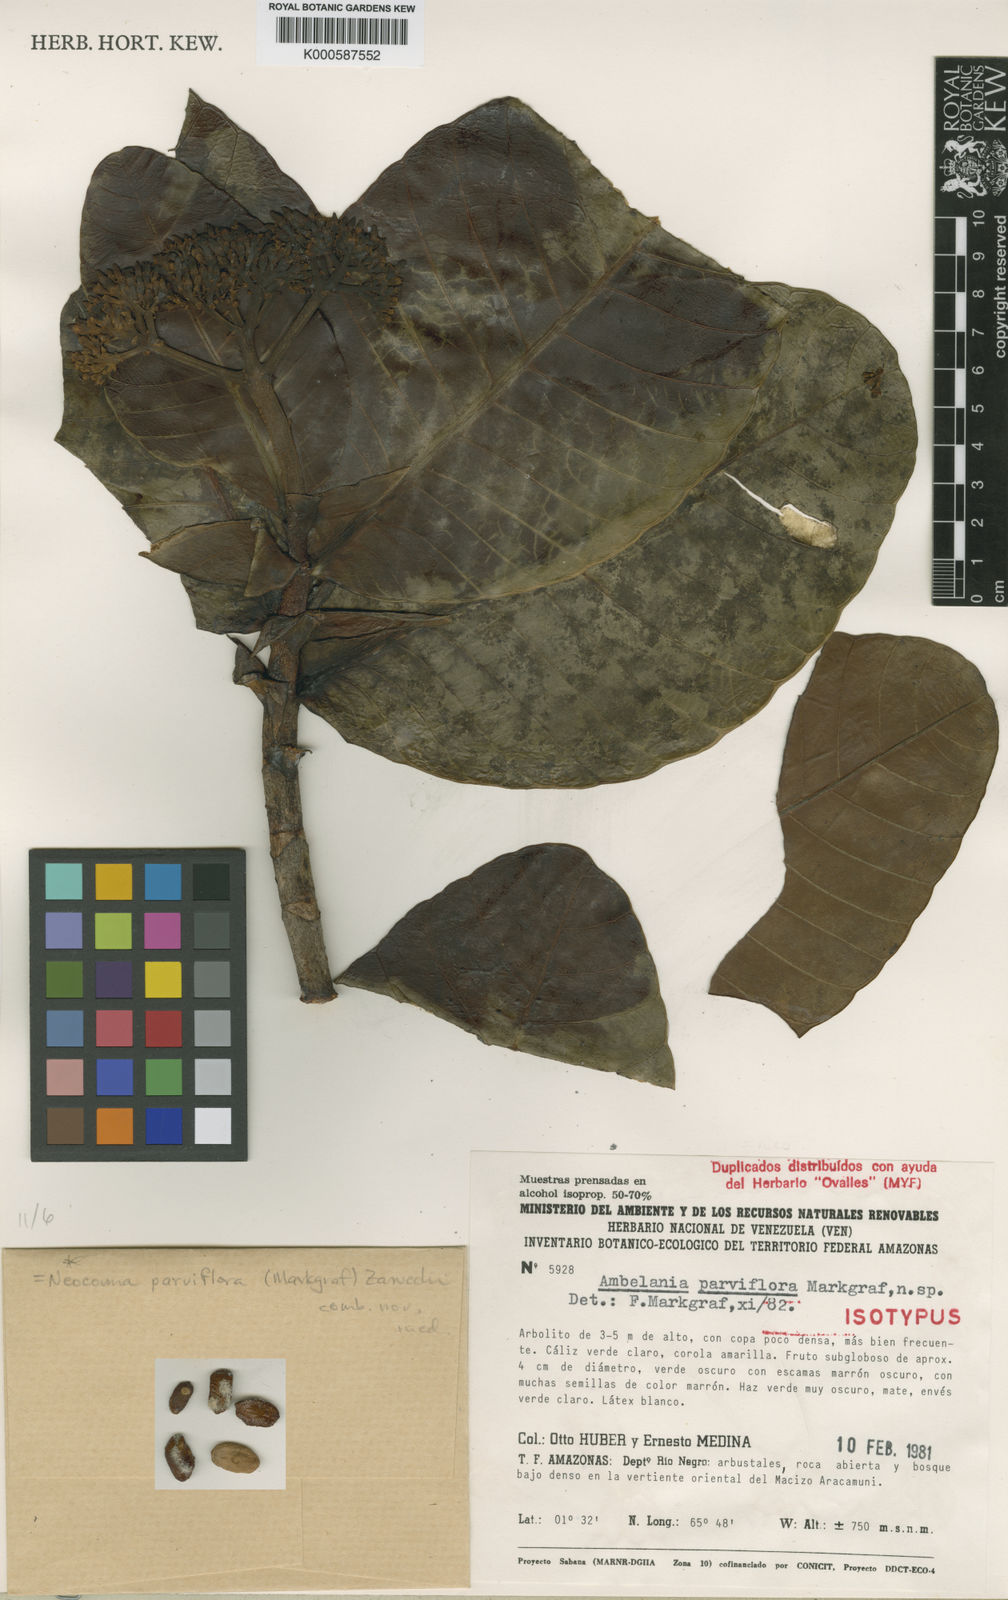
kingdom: Plantae
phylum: Tracheophyta
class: Magnoliopsida
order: Gentianales
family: Apocynaceae
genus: Neocouma
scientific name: Neocouma parviflora
